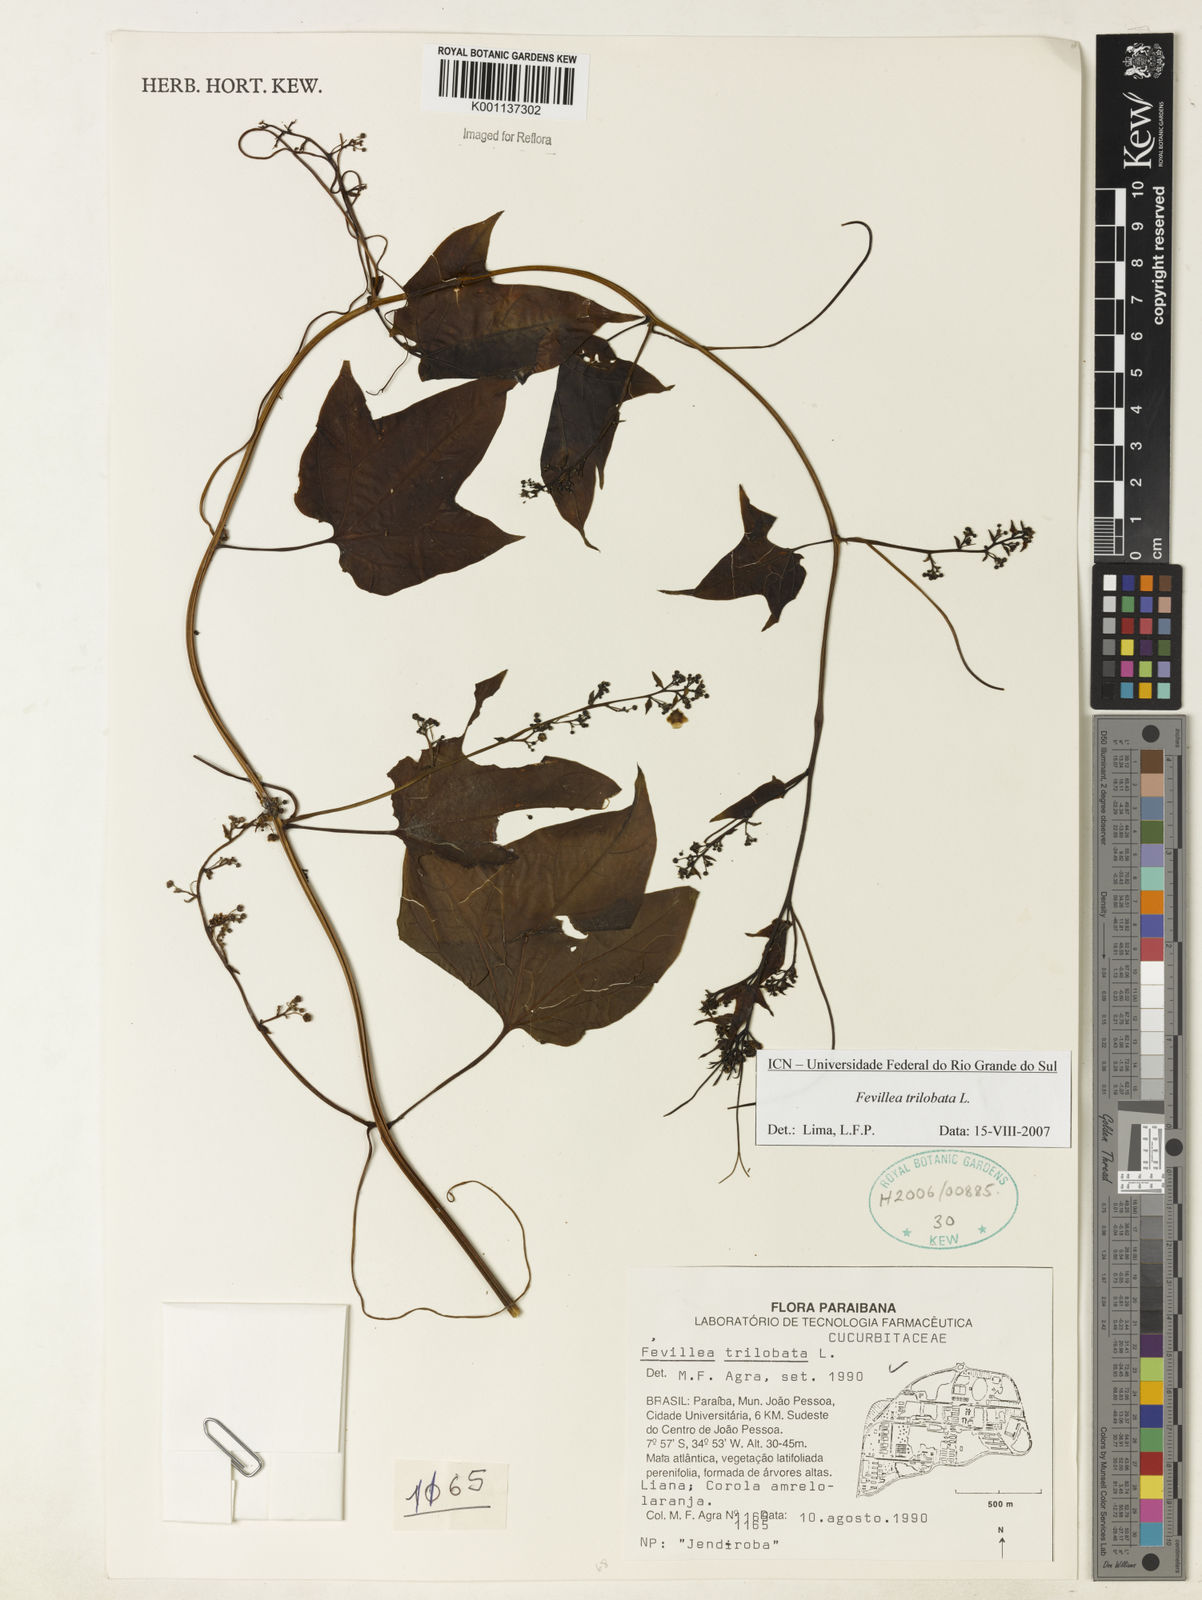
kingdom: Plantae
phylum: Tracheophyta
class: Magnoliopsida
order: Cucurbitales
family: Cucurbitaceae
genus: Fevillea
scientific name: Fevillea trilobata
